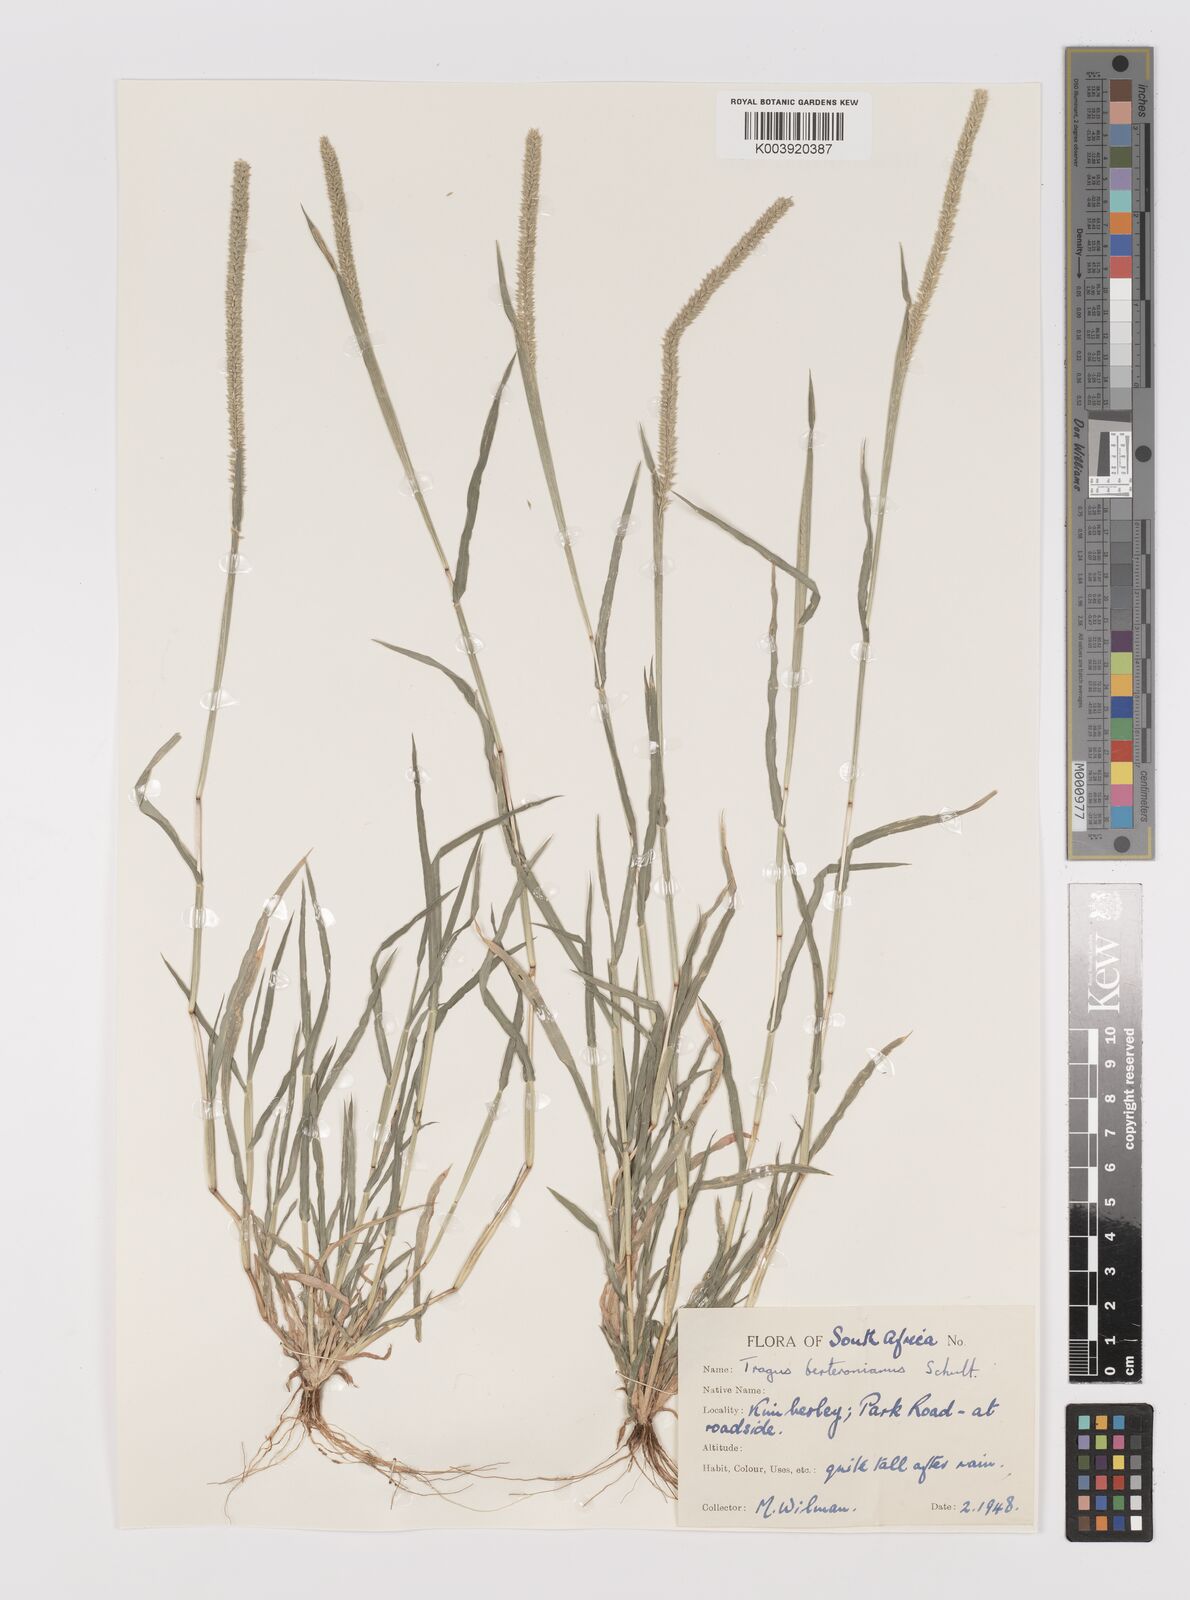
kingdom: Plantae
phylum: Tracheophyta
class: Liliopsida
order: Poales
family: Poaceae
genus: Tragus
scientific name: Tragus berteronianus
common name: African bur-grass
